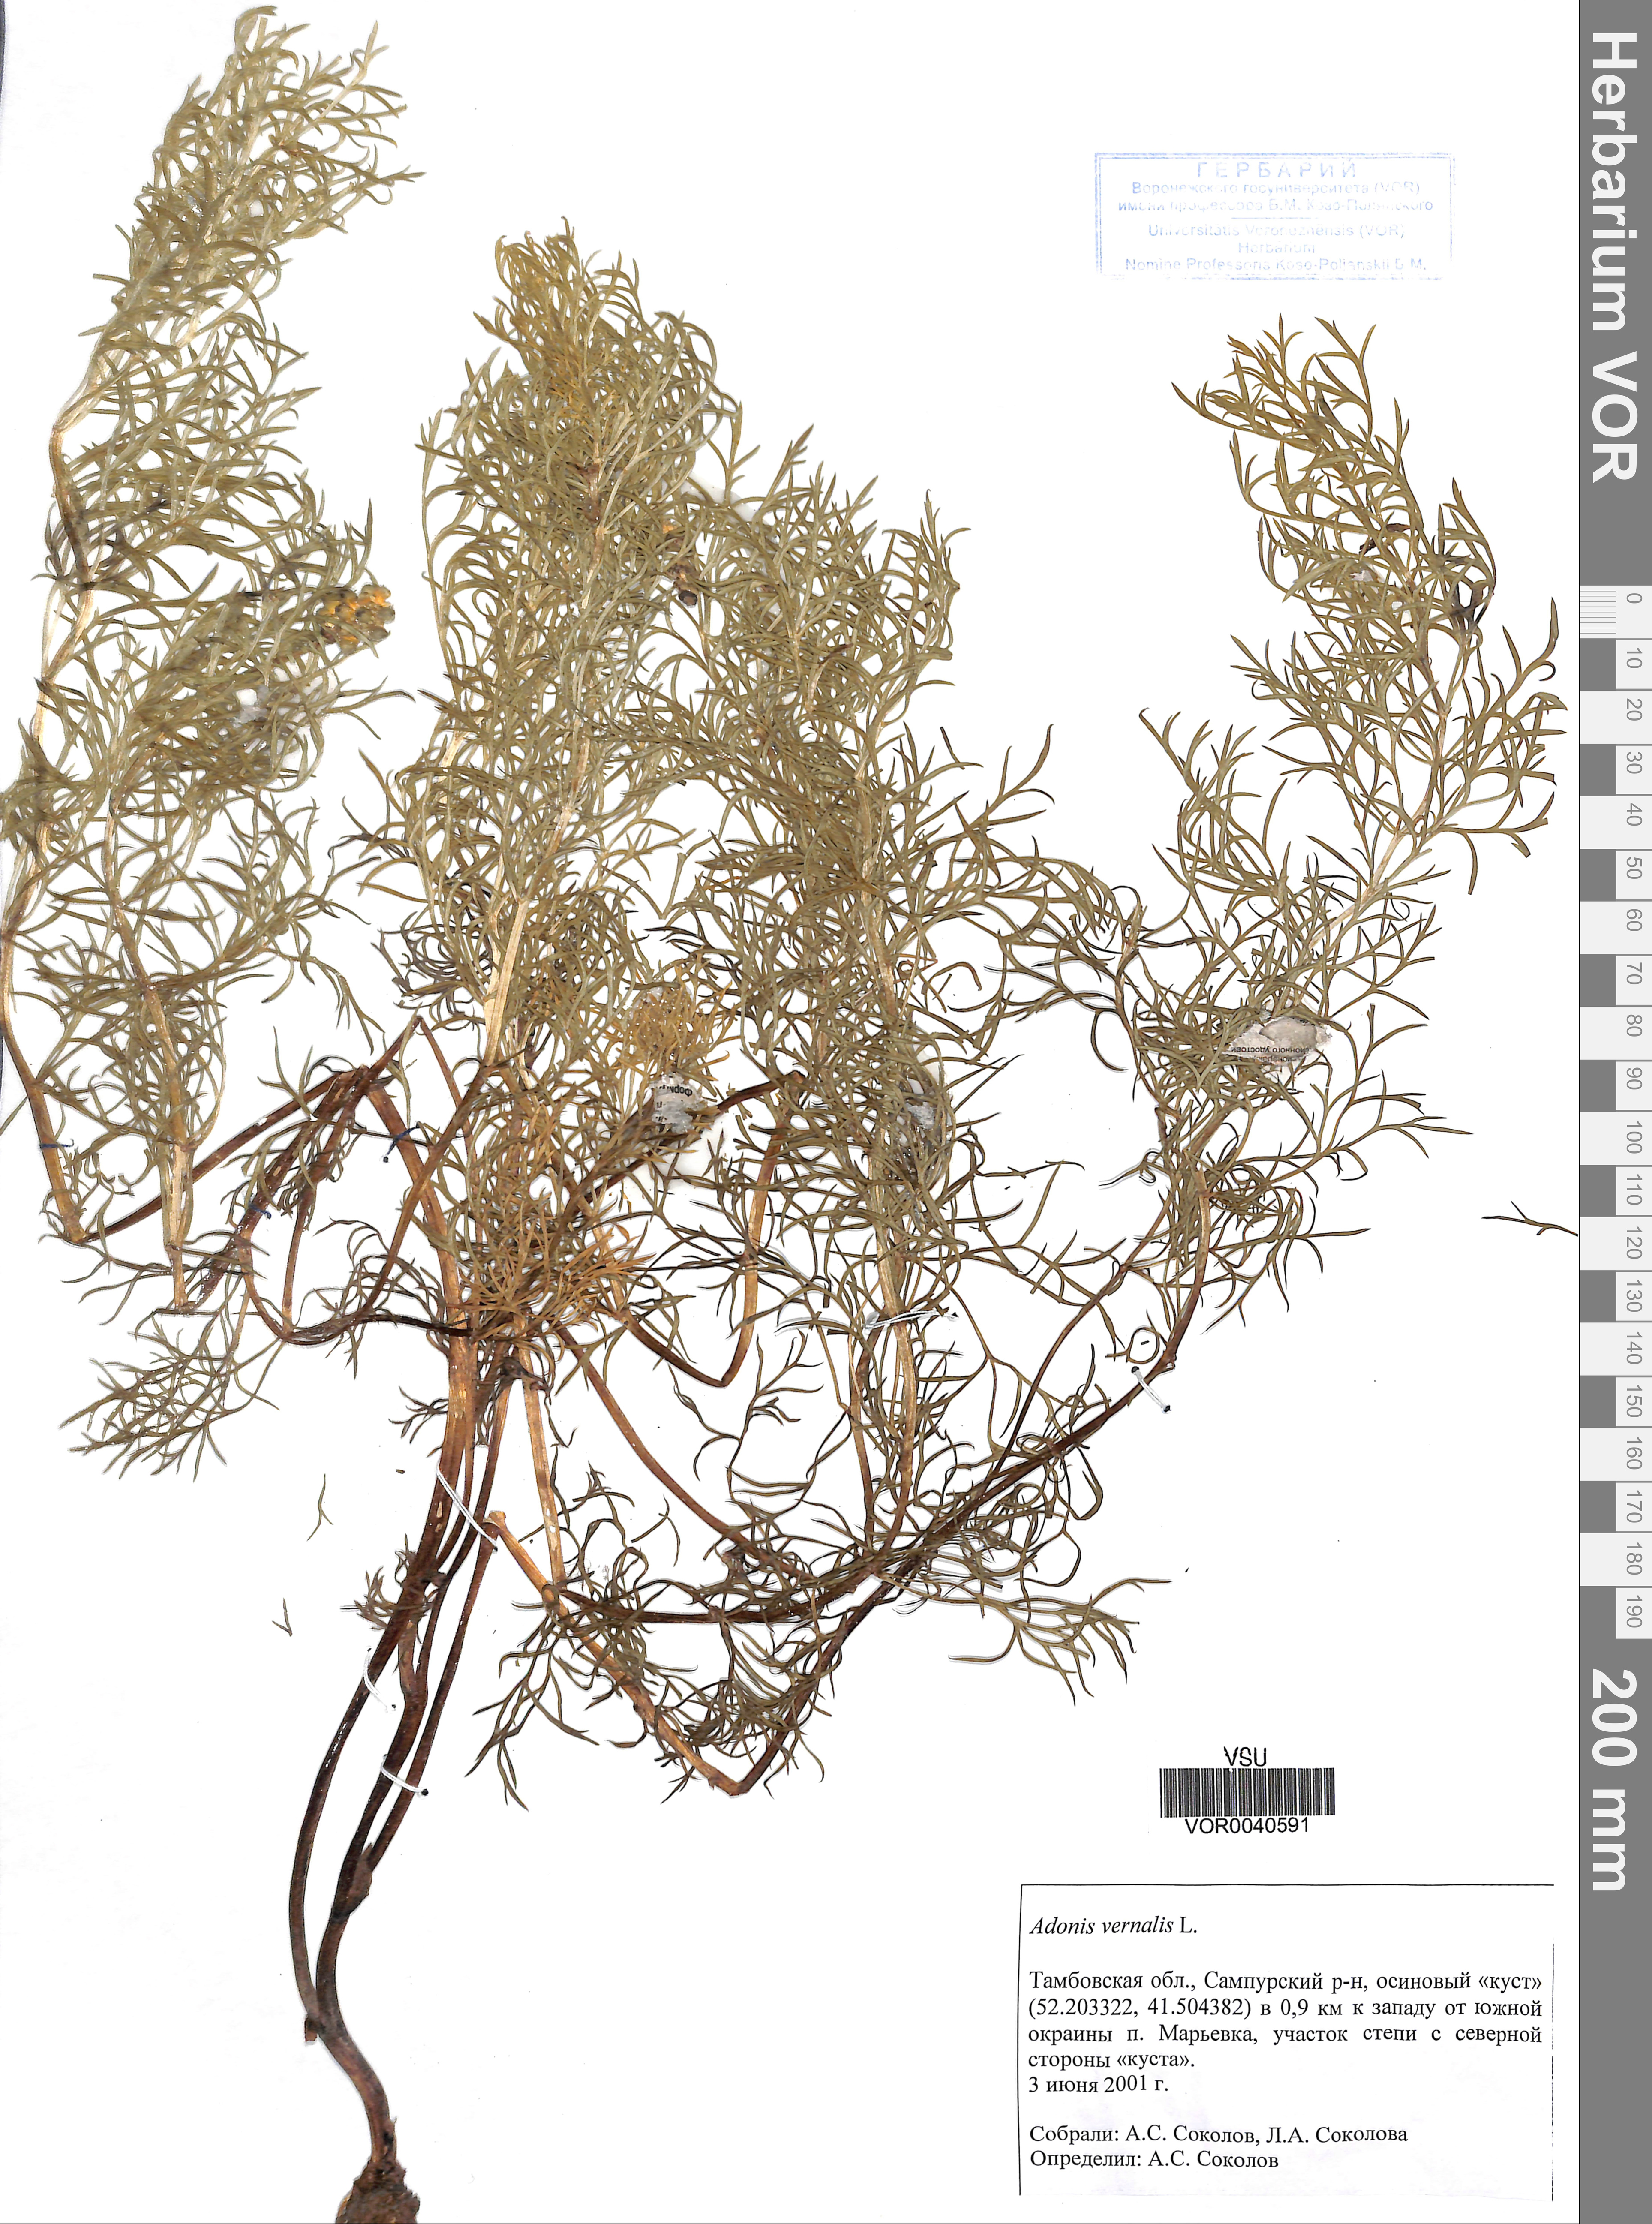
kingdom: Plantae
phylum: Tracheophyta
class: Magnoliopsida
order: Ranunculales
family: Ranunculaceae
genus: Adonis
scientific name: Adonis vernalis
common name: Yellow pheasants-eye
